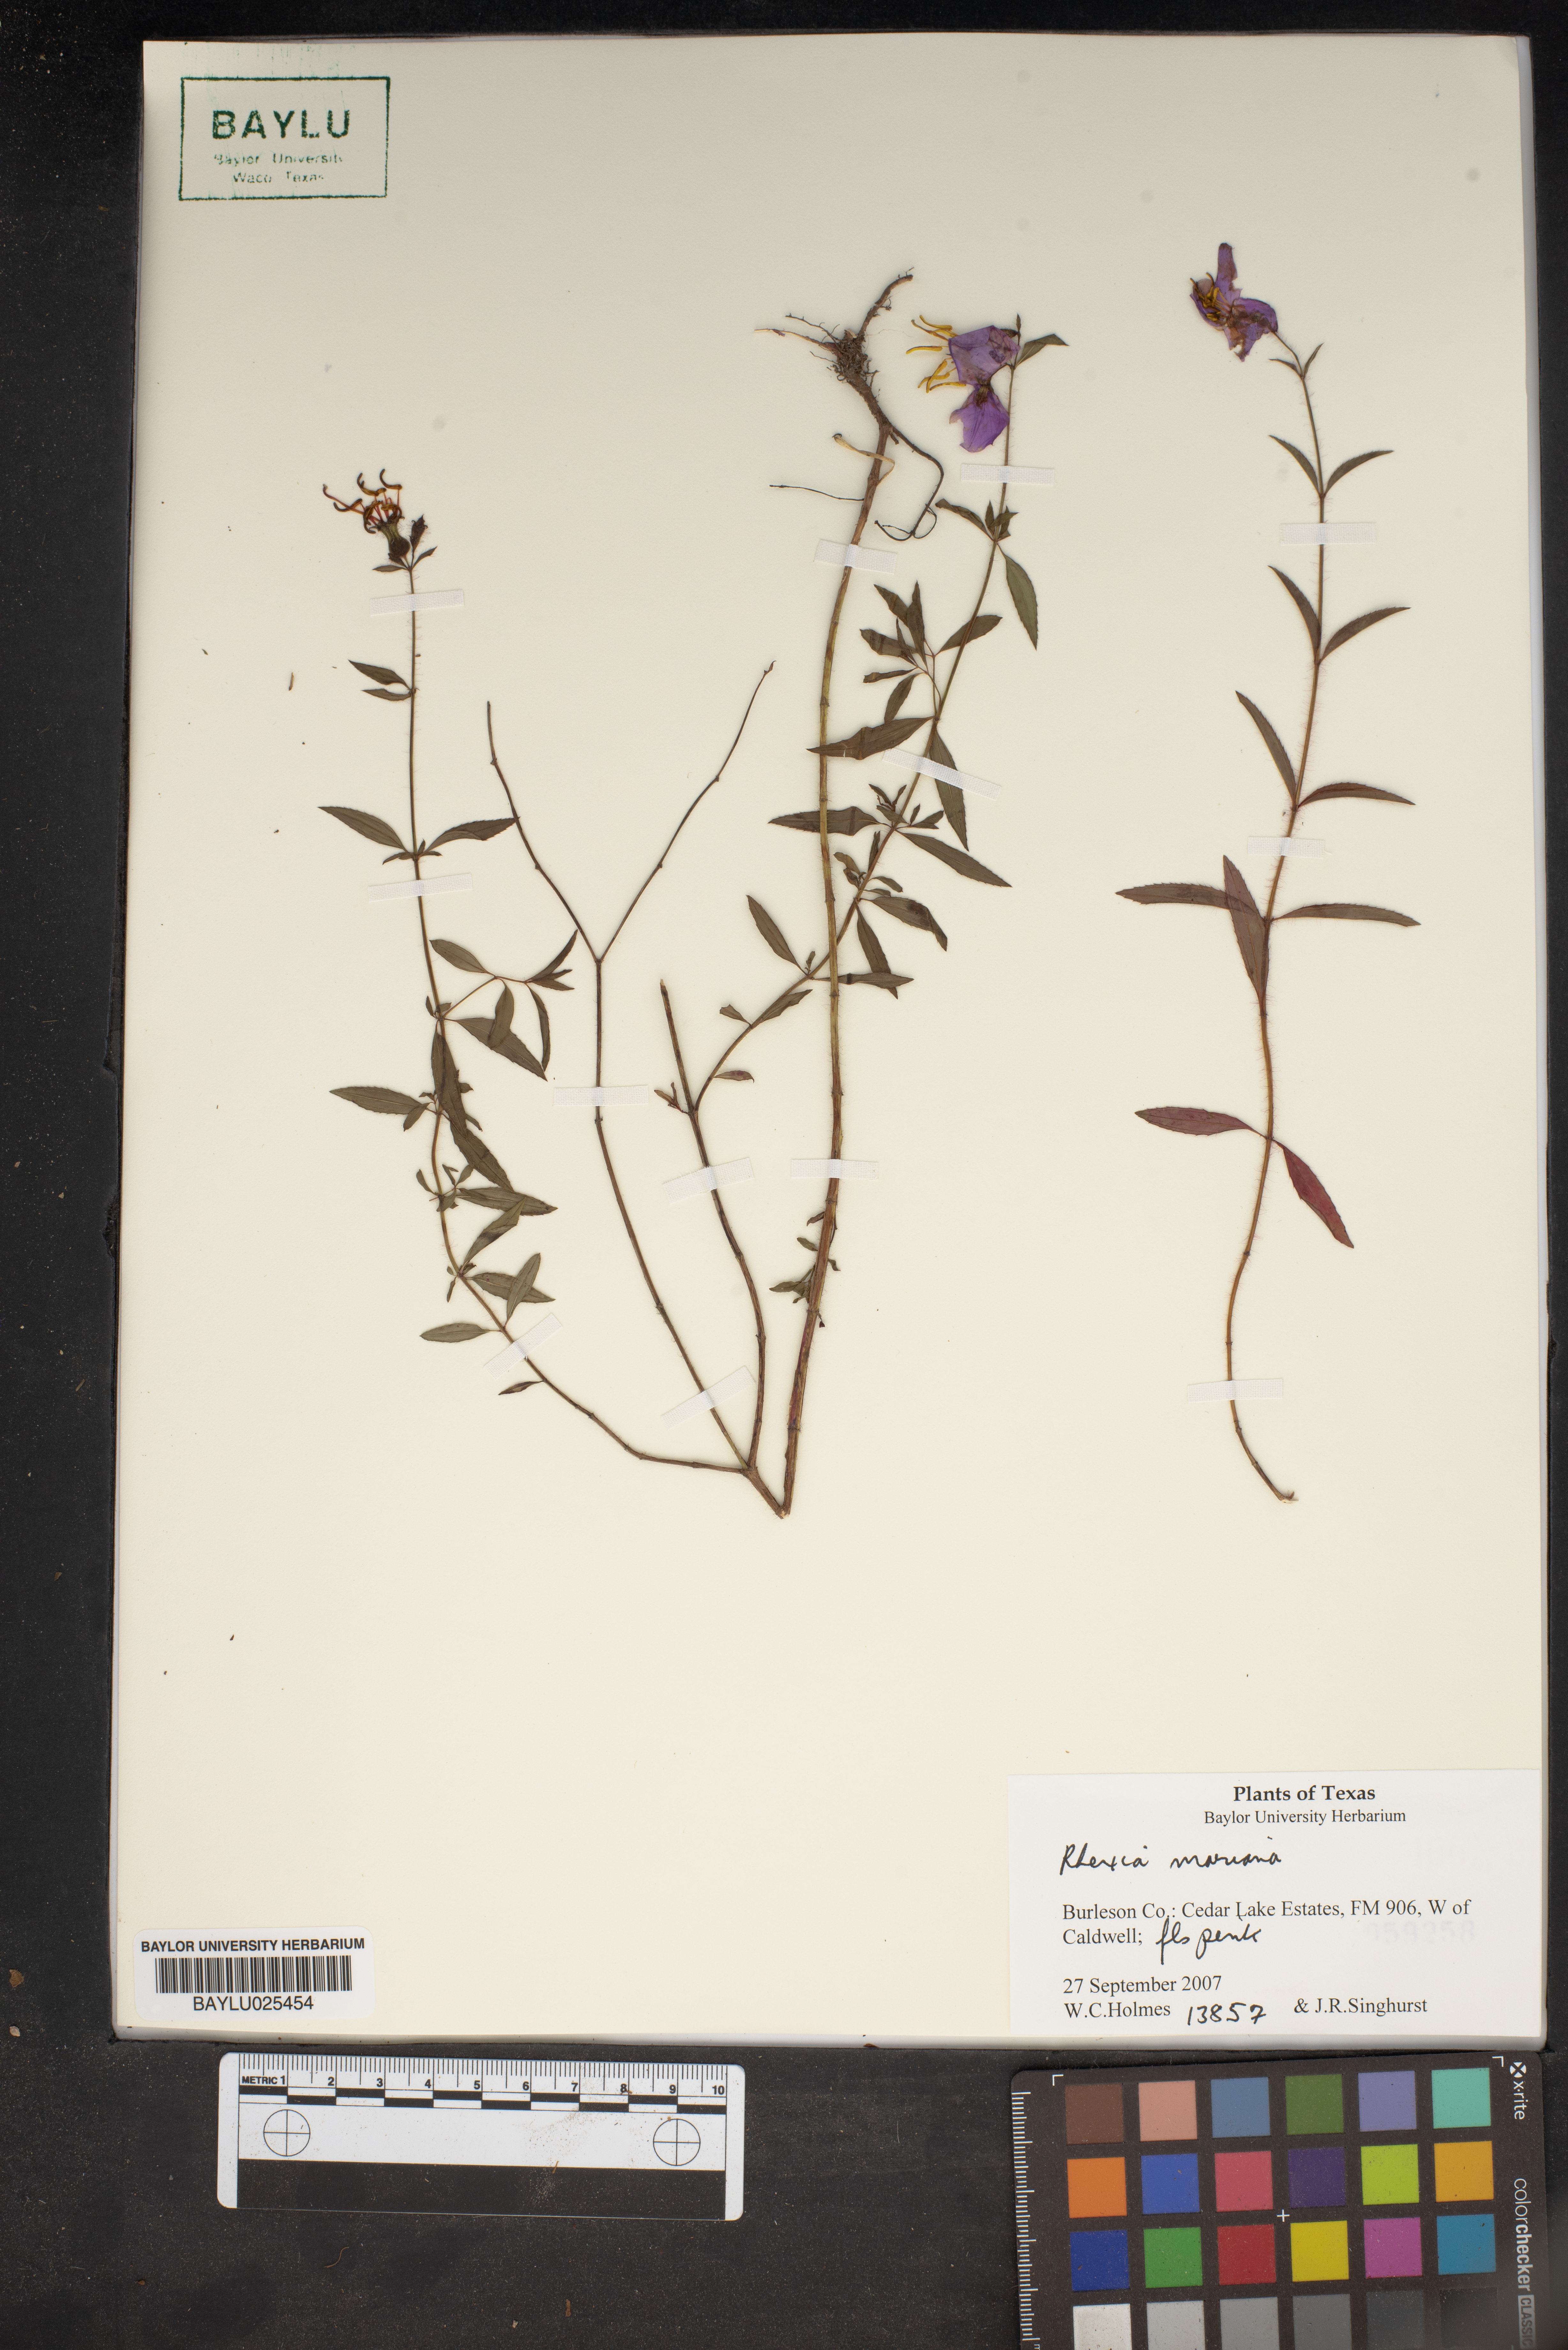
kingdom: Plantae
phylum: Tracheophyta
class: Magnoliopsida
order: Myrtales
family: Melastomataceae
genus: Rhexia
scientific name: Rhexia mariana
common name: Dull meadow-pitcher
